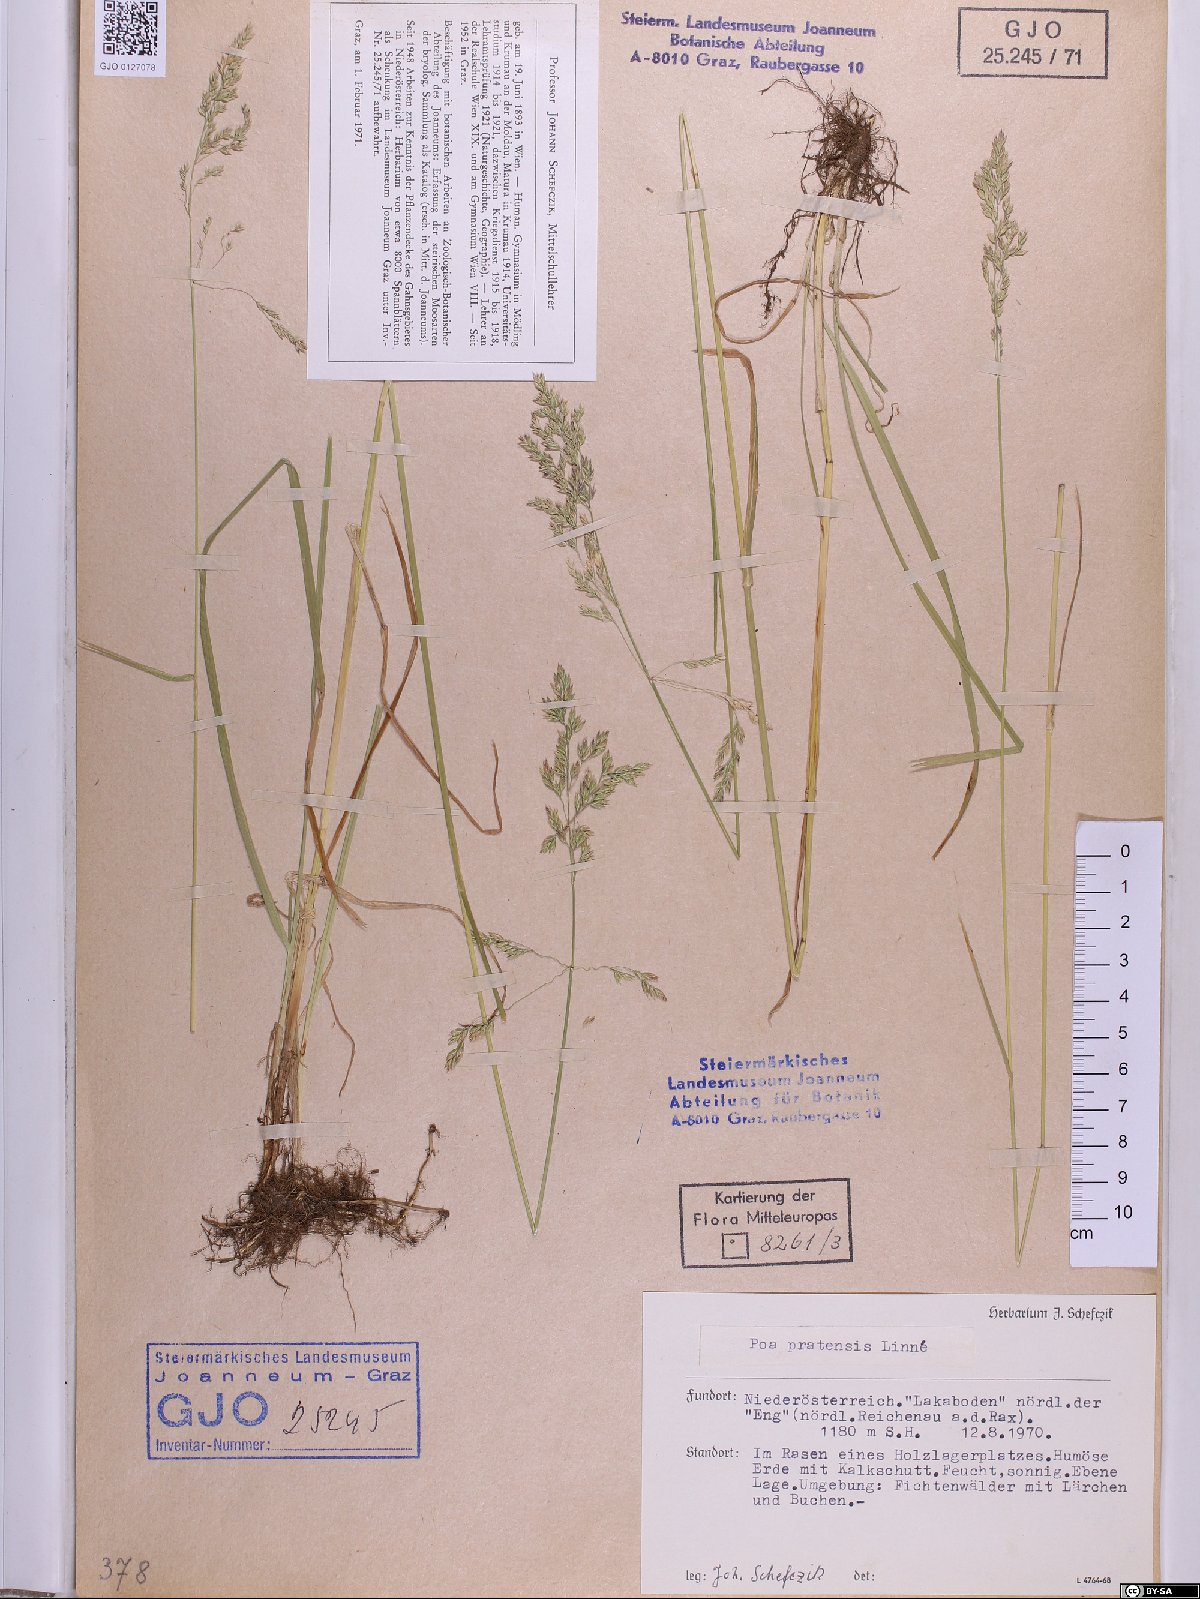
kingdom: Plantae
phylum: Tracheophyta
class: Liliopsida
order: Poales
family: Poaceae
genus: Poa
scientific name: Poa pratensis
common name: Kentucky bluegrass
